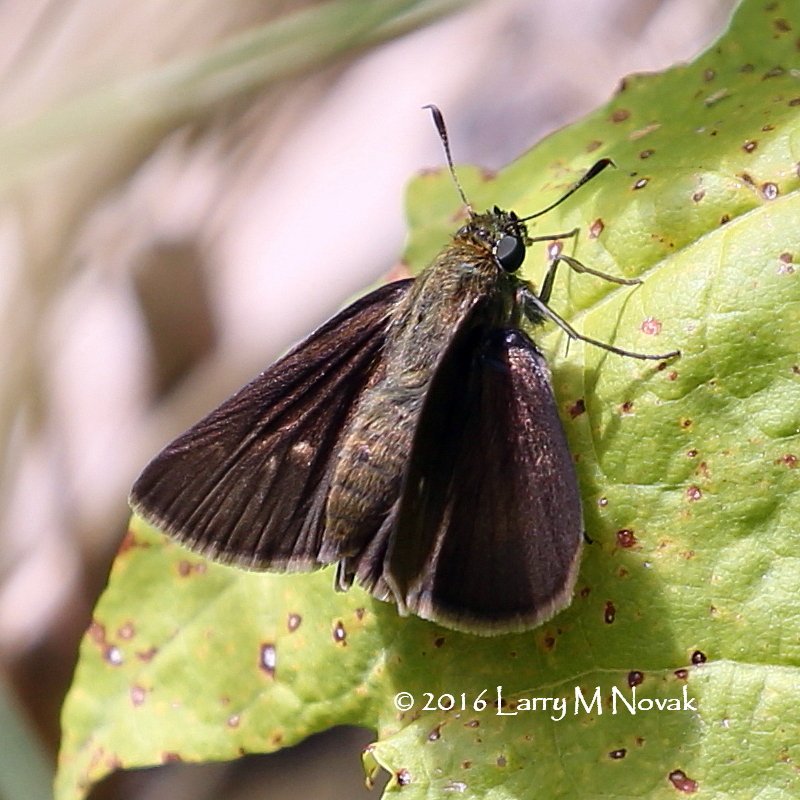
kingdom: Animalia
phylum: Arthropoda
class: Insecta
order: Lepidoptera
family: Hesperiidae
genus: Euphyes
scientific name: Euphyes vestris
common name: Dun Skipper
